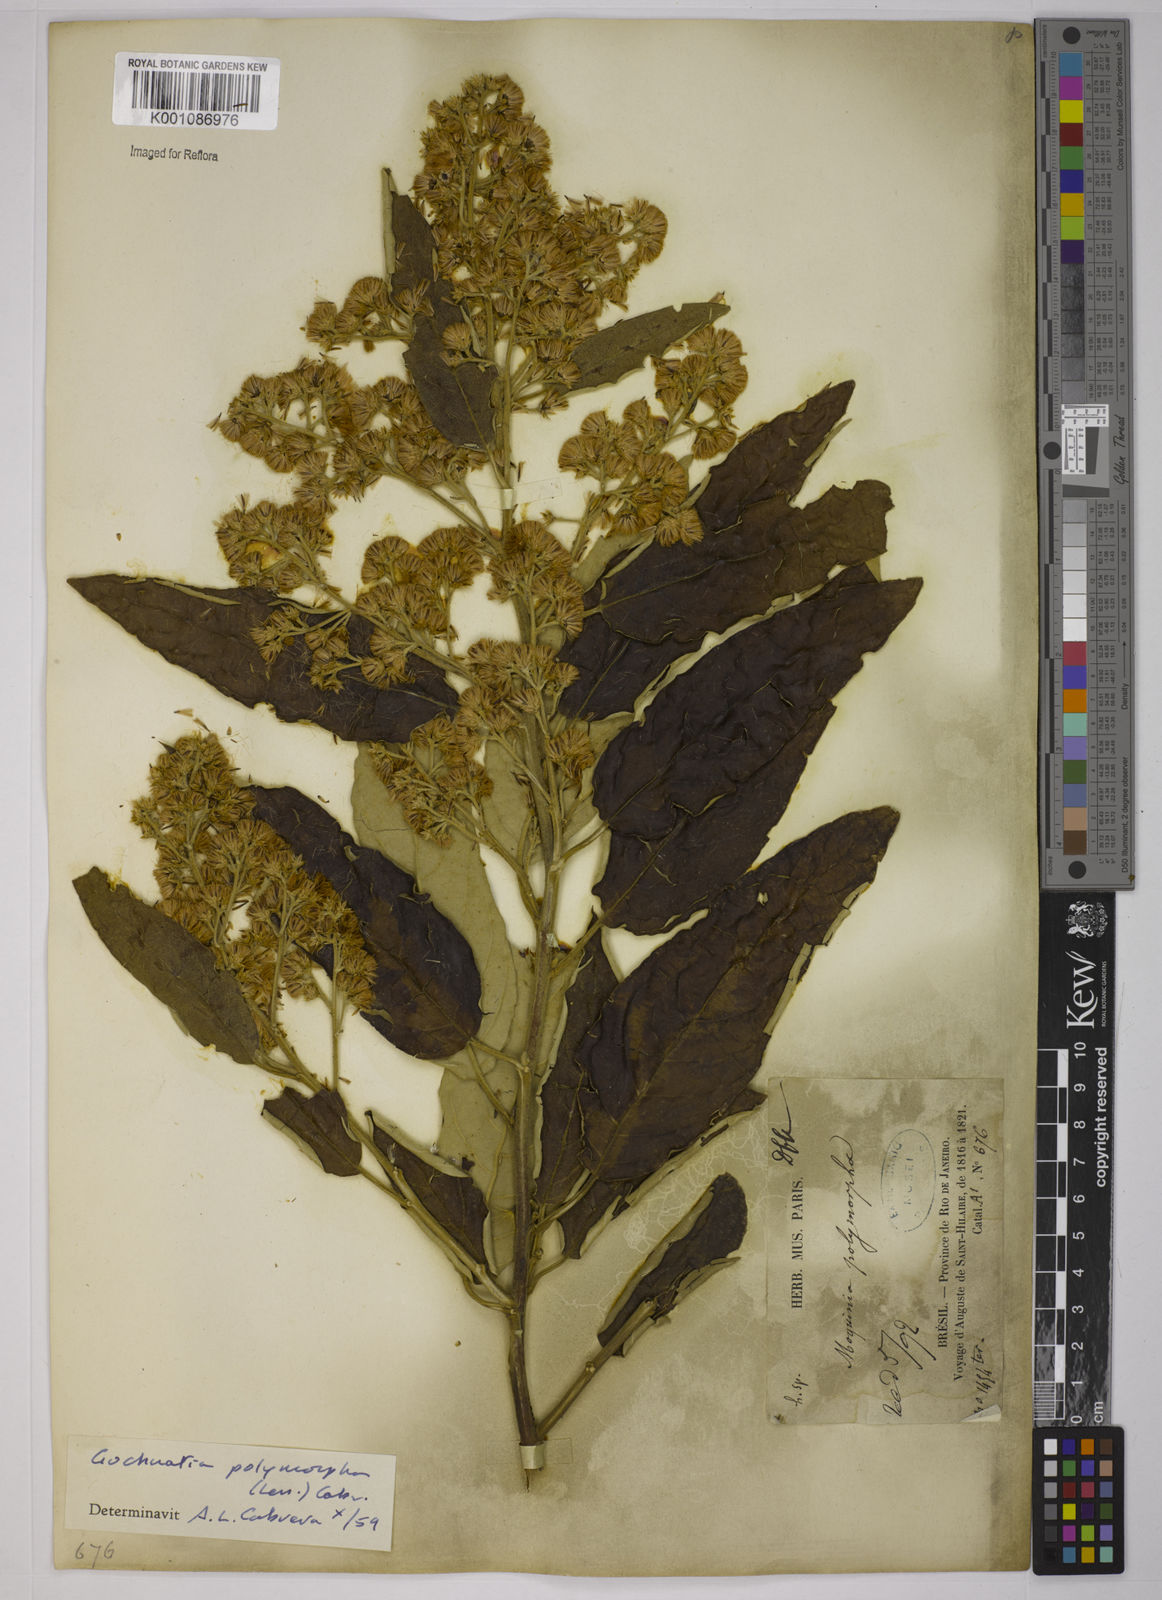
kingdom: Plantae
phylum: Tracheophyta
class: Magnoliopsida
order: Asterales
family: Asteraceae
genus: Moquiniastrum
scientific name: Moquiniastrum polymorphum
